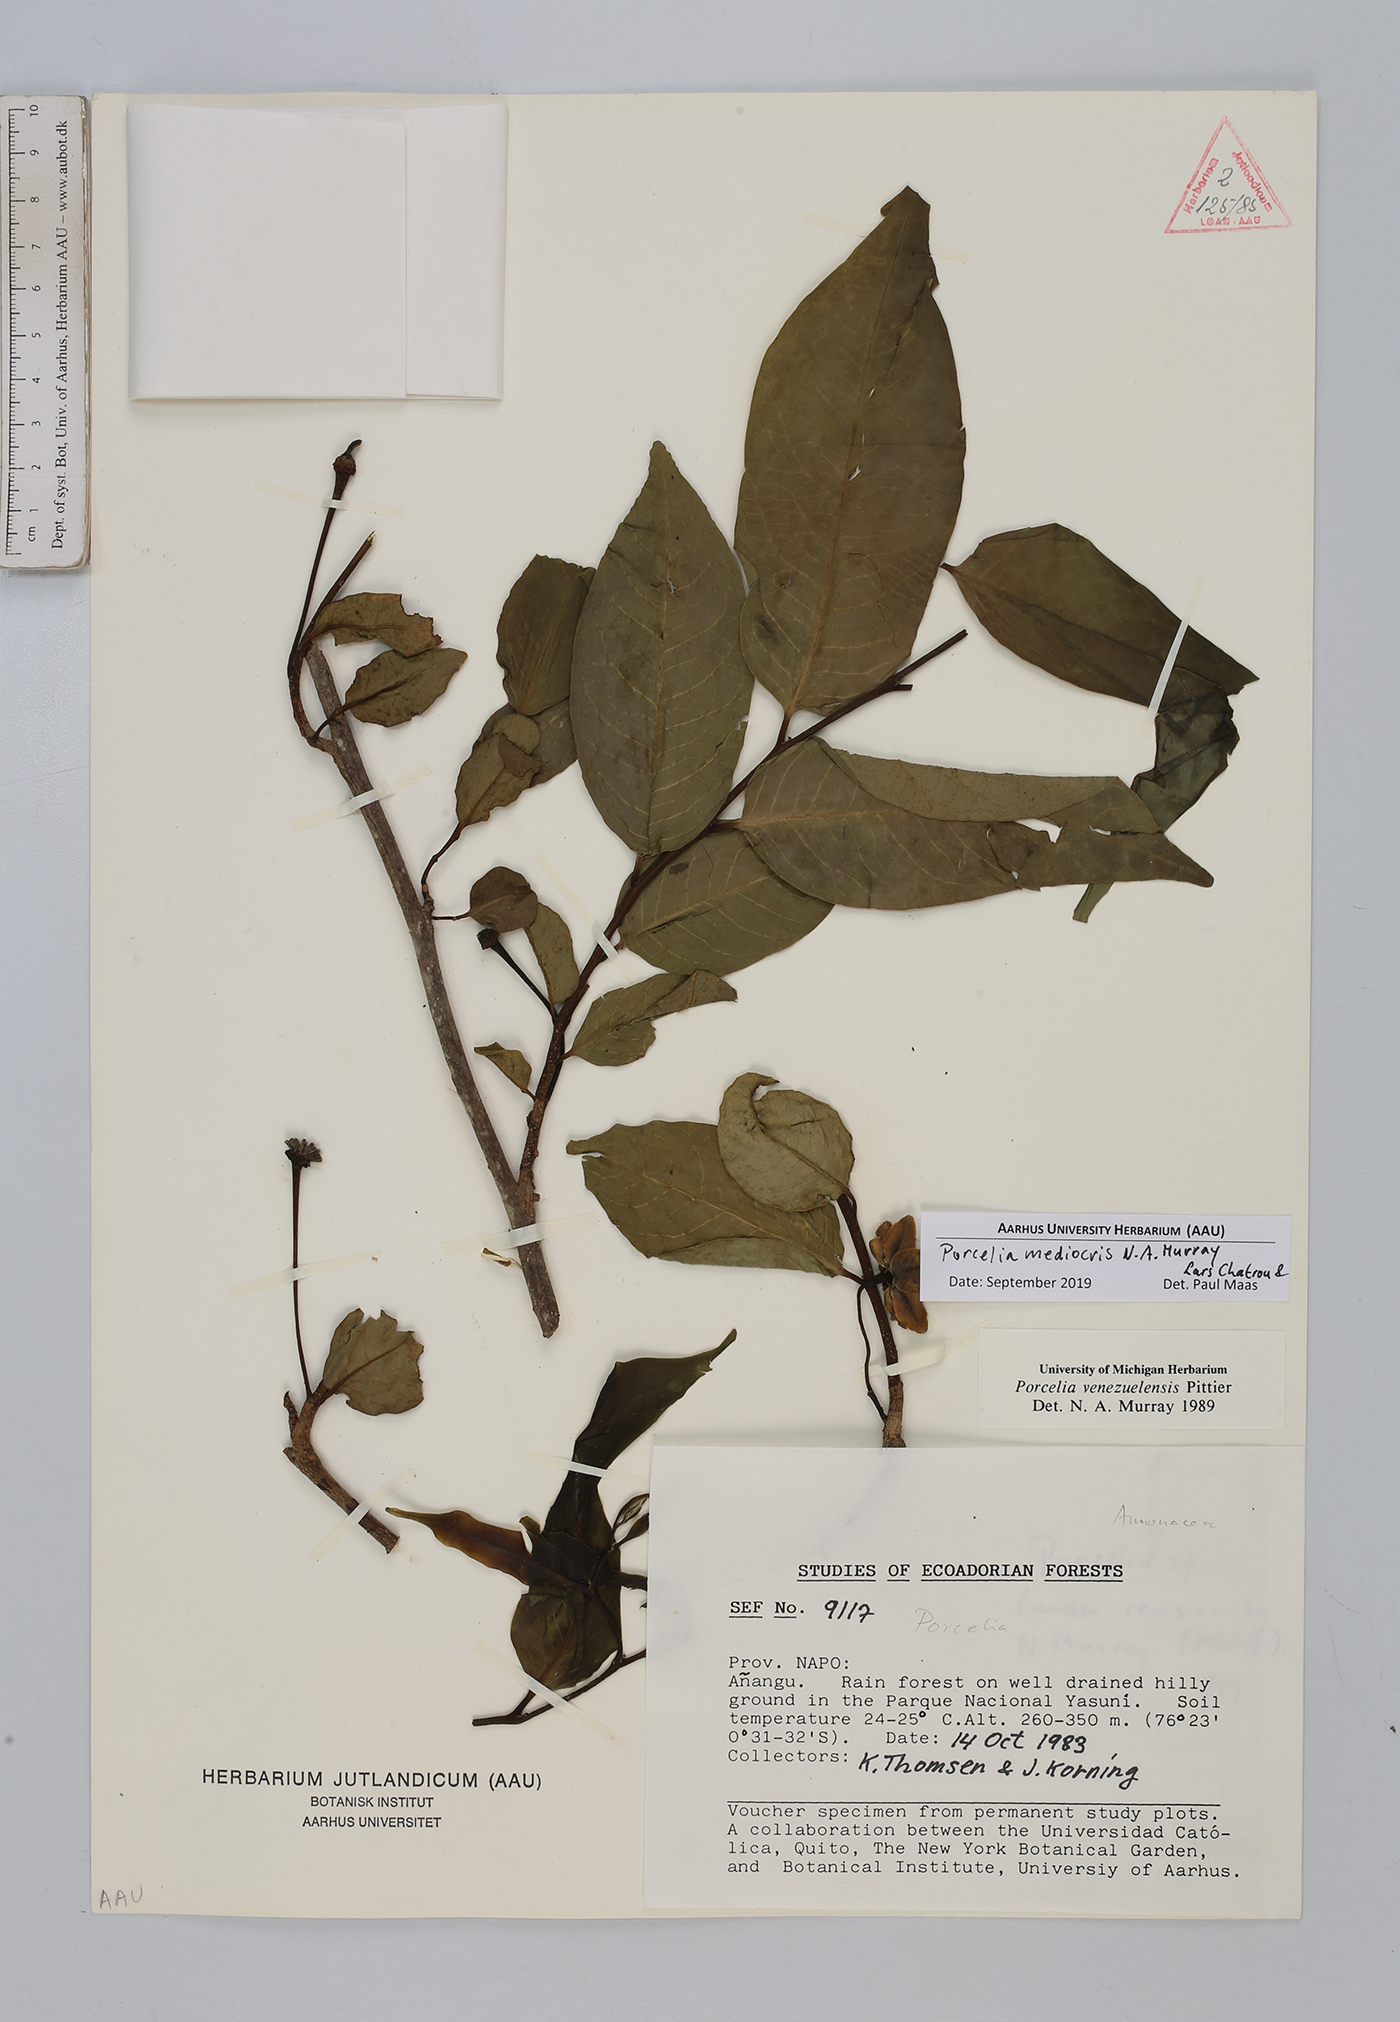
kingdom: Plantae
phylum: Tracheophyta
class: Magnoliopsida
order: Magnoliales
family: Annonaceae
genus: Porcelia
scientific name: Porcelia mediocris
